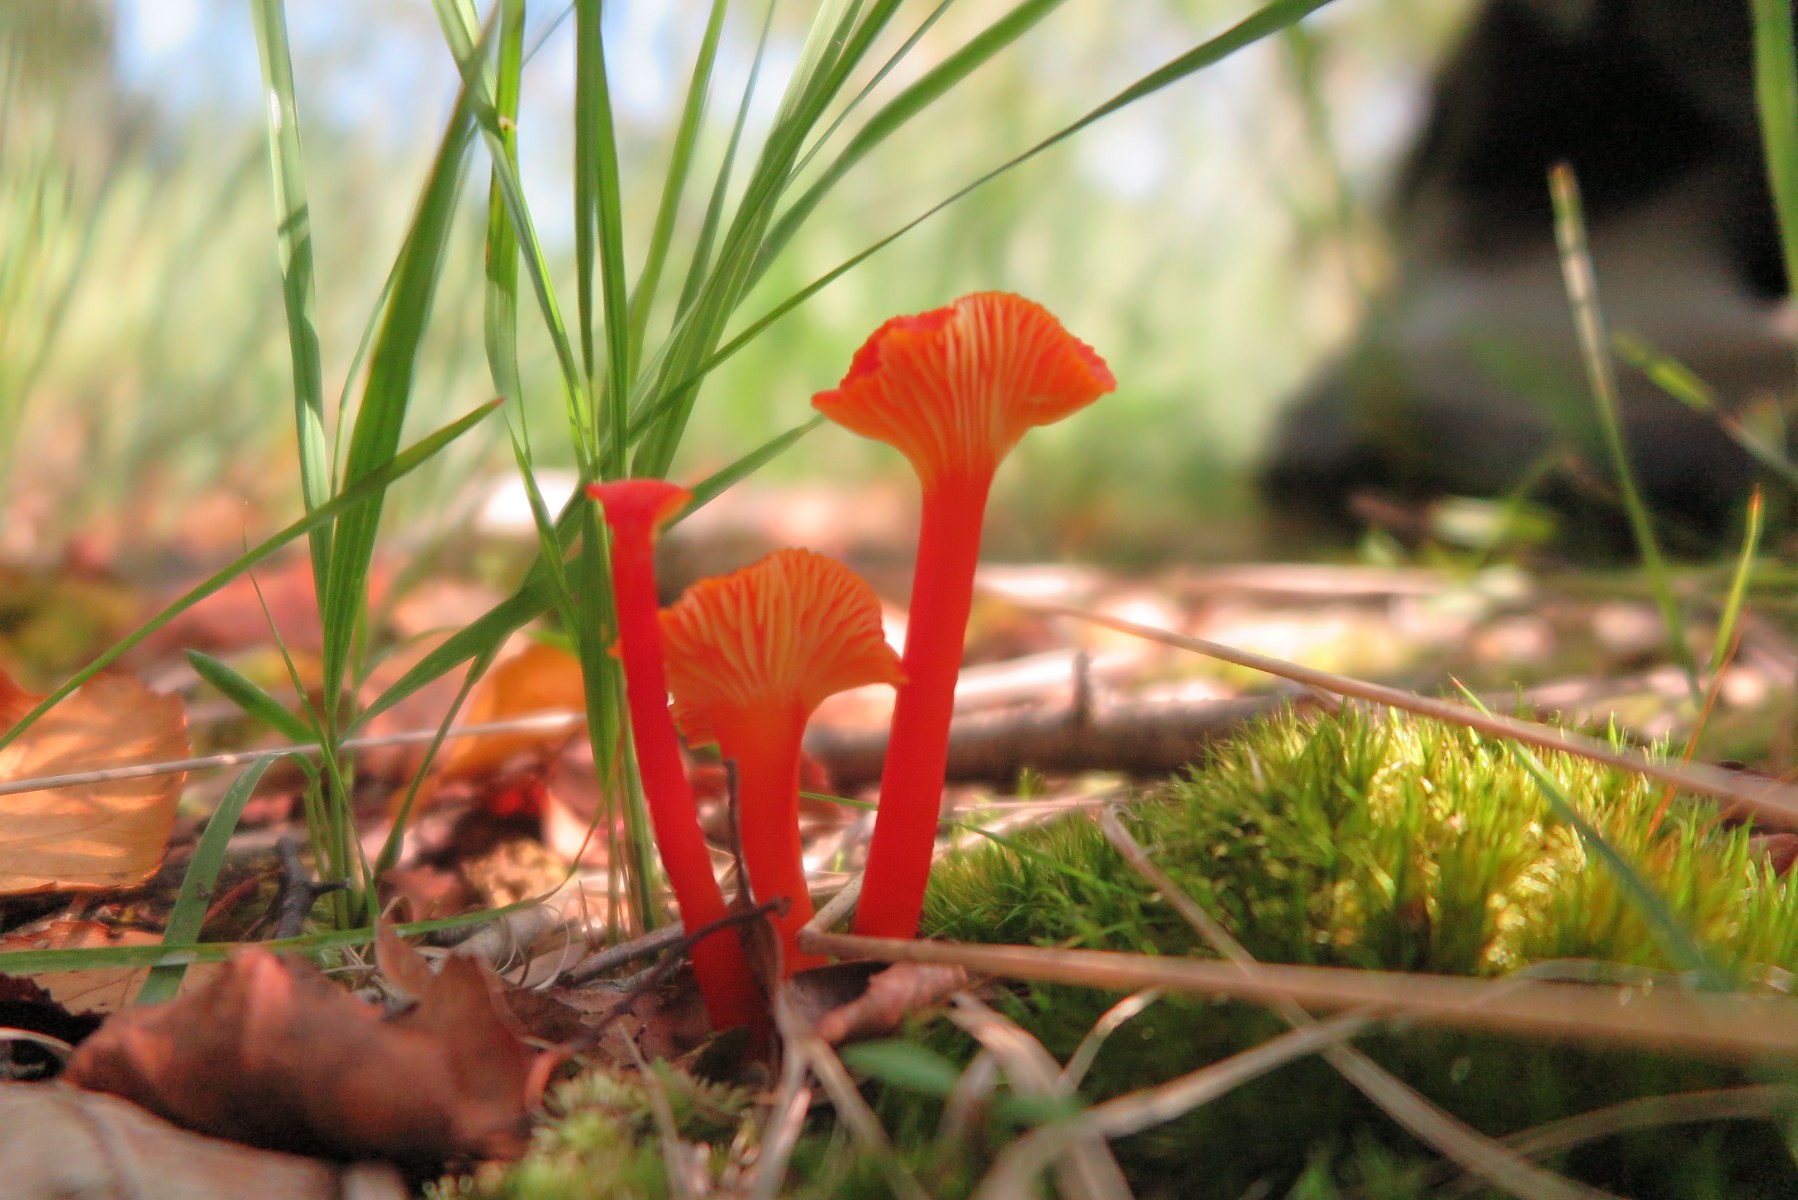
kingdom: Fungi
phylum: Basidiomycota
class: Agaricomycetes
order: Agaricales
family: Hygrophoraceae
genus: Hygrocybe
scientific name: Hygrocybe cantharellus
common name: kantarel-vokshat
